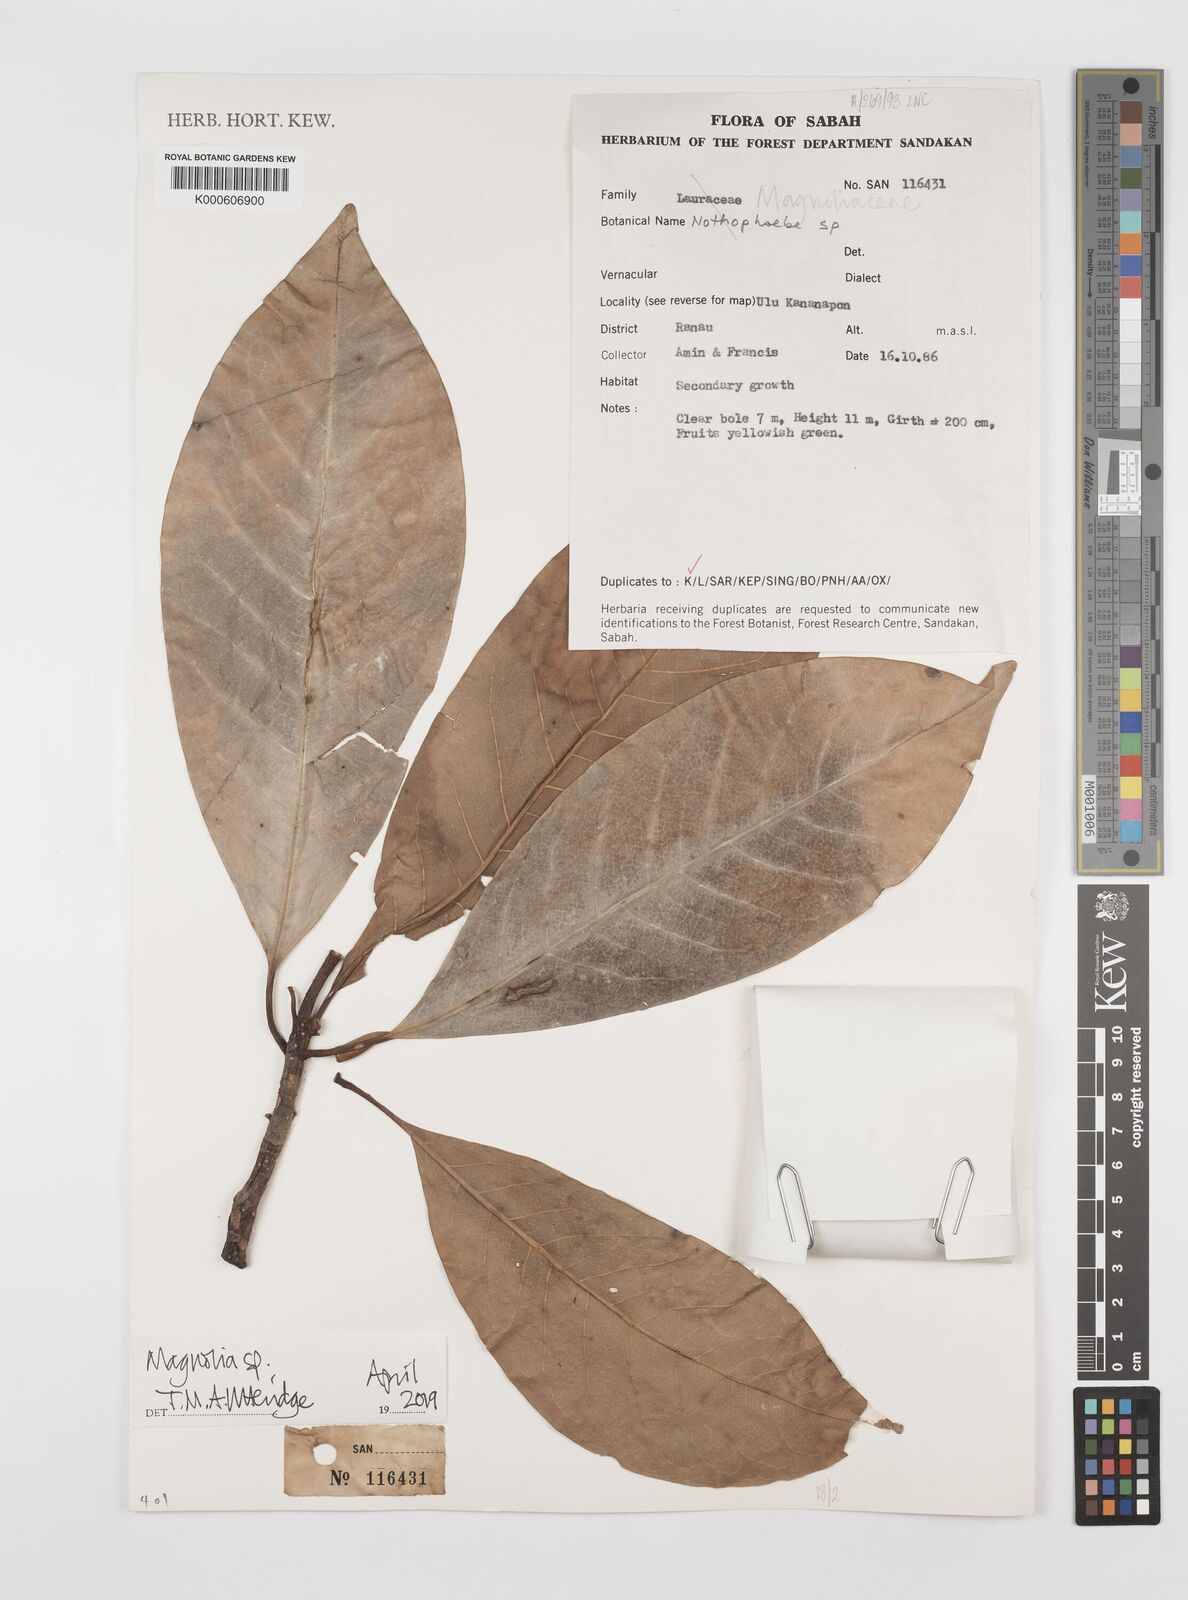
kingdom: Plantae
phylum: Tracheophyta
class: Magnoliopsida
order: Magnoliales
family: Magnoliaceae
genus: Magnolia
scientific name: Magnolia
